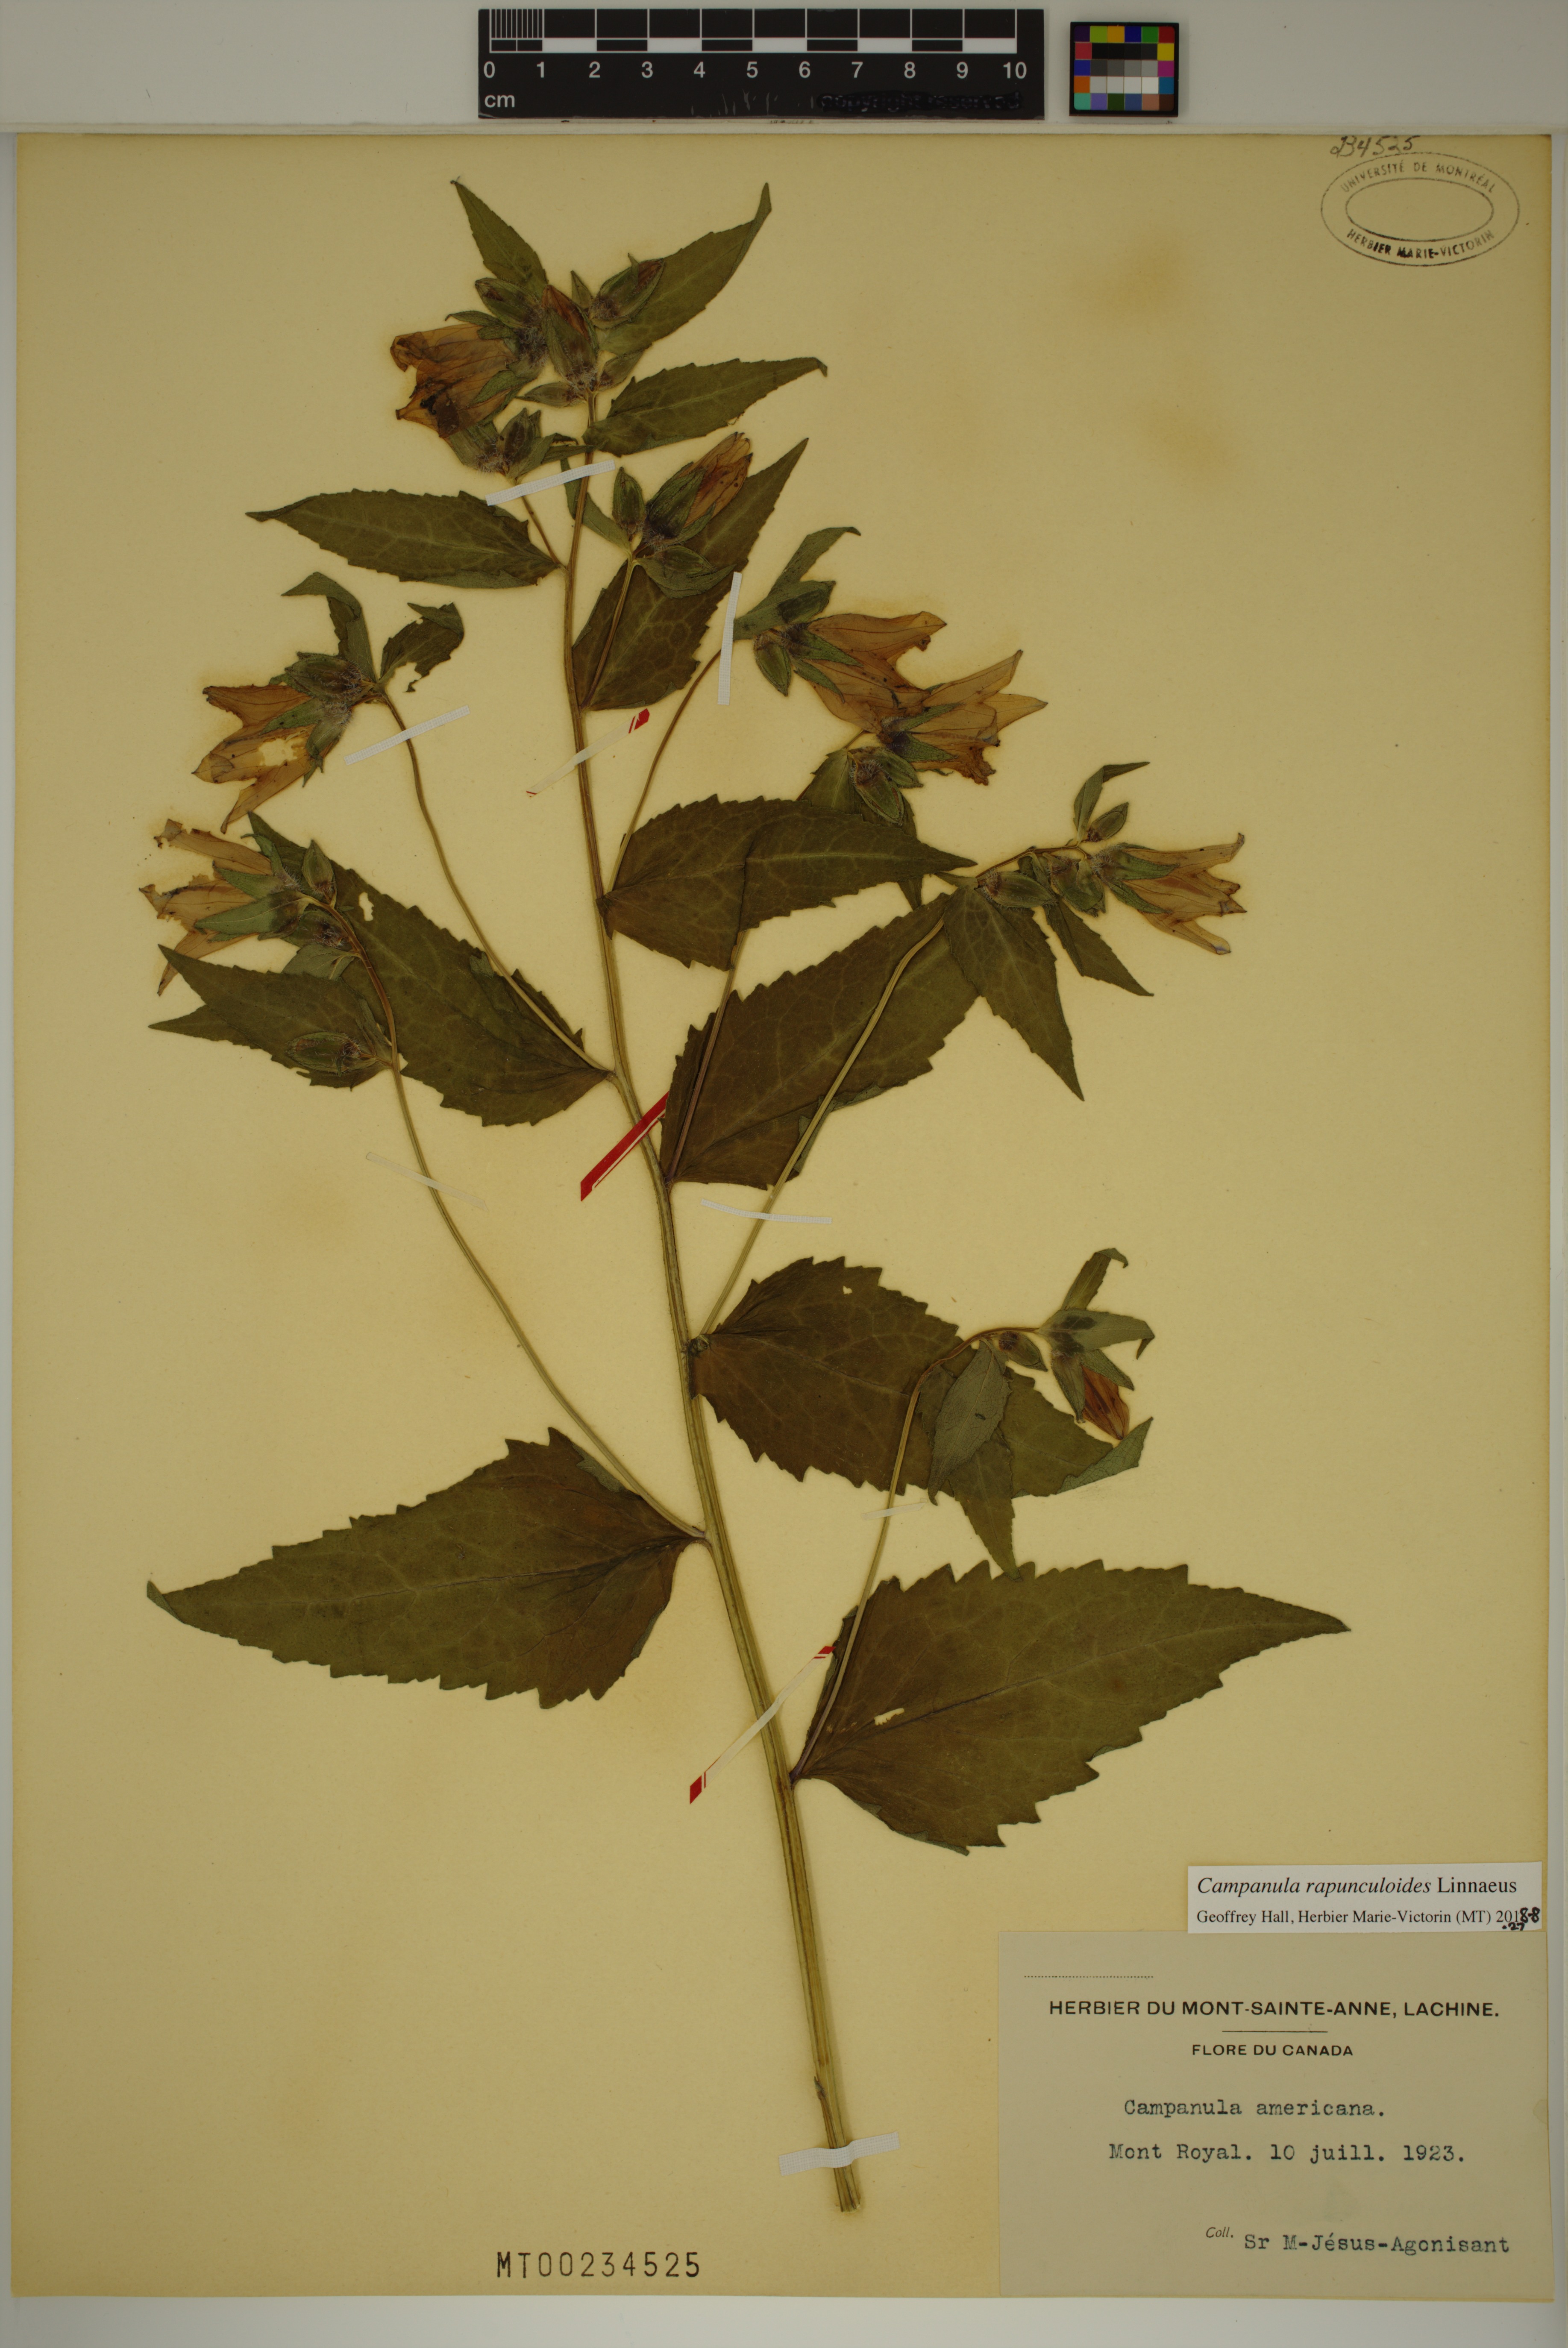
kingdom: Plantae
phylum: Tracheophyta
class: Magnoliopsida
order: Asterales
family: Campanulaceae
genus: Campanula
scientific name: Campanula rapunculoides
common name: Creeping bellflower
